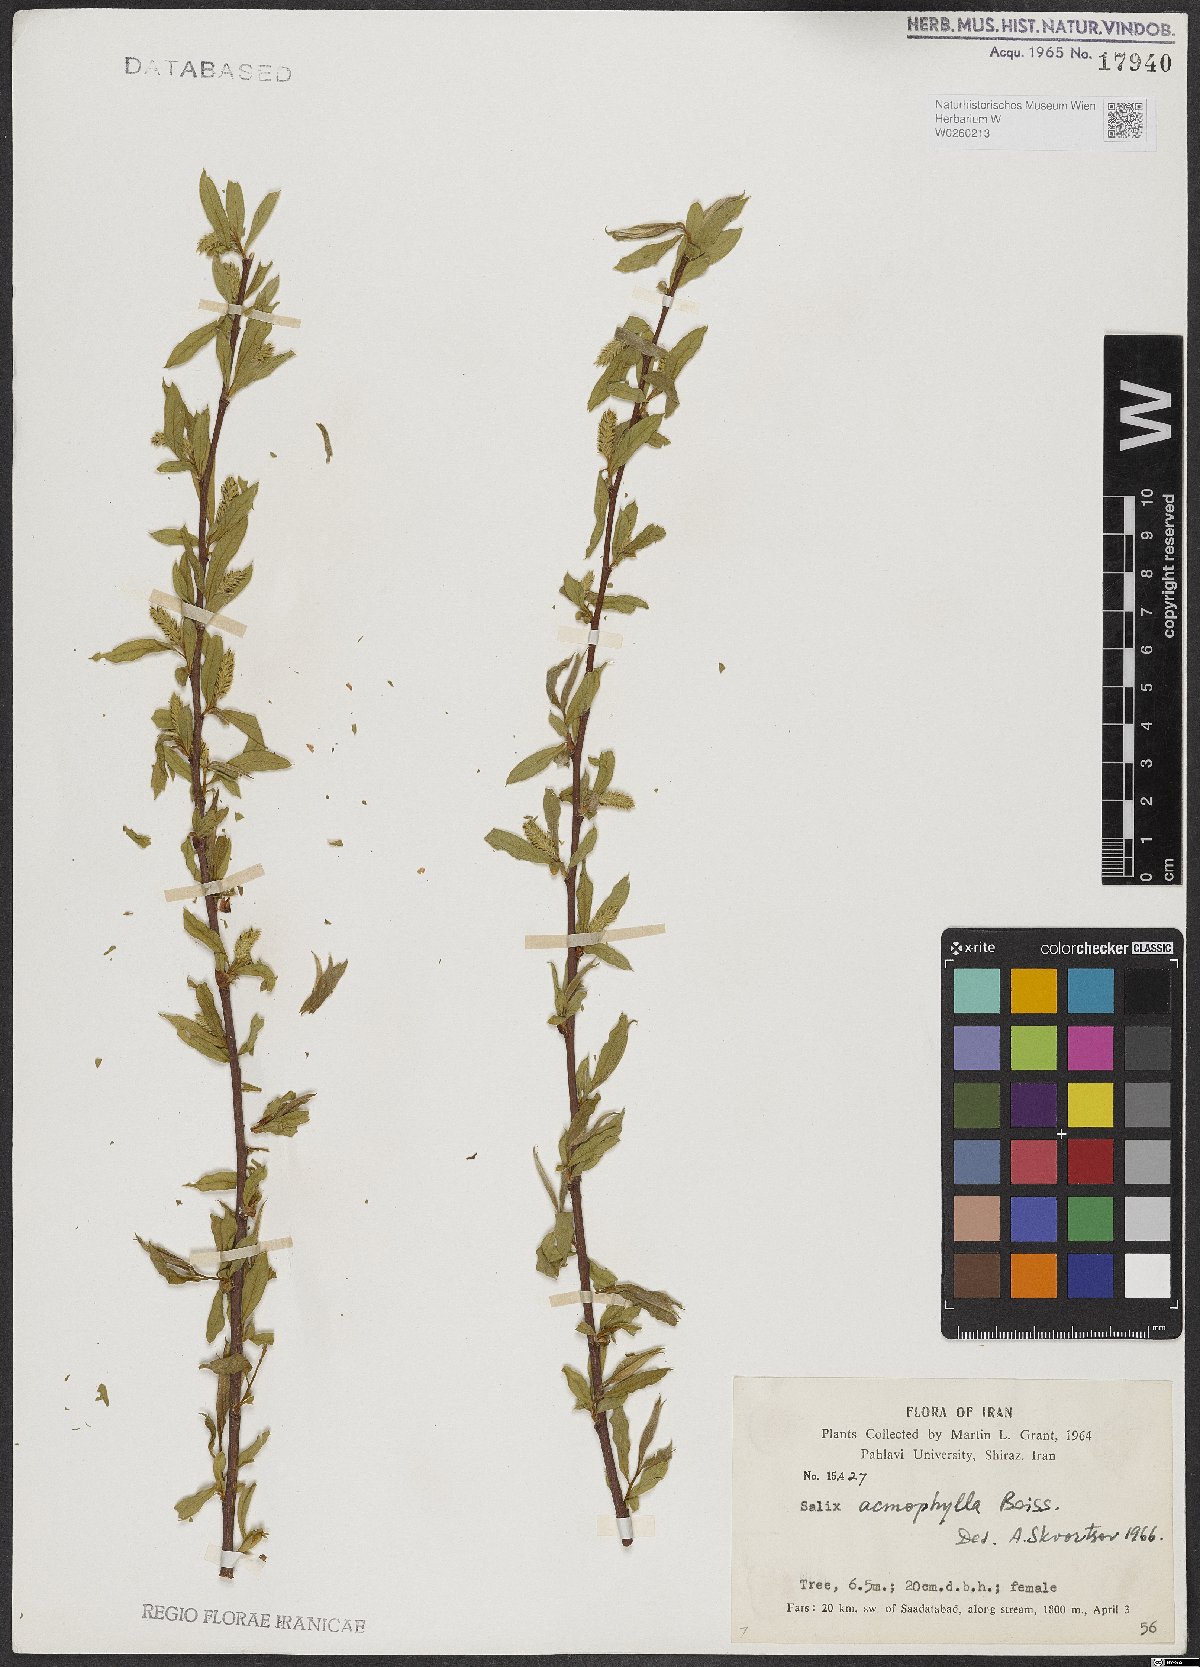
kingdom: Plantae
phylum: Tracheophyta
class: Magnoliopsida
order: Malpighiales
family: Salicaceae
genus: Salix
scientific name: Salix acmophylla
